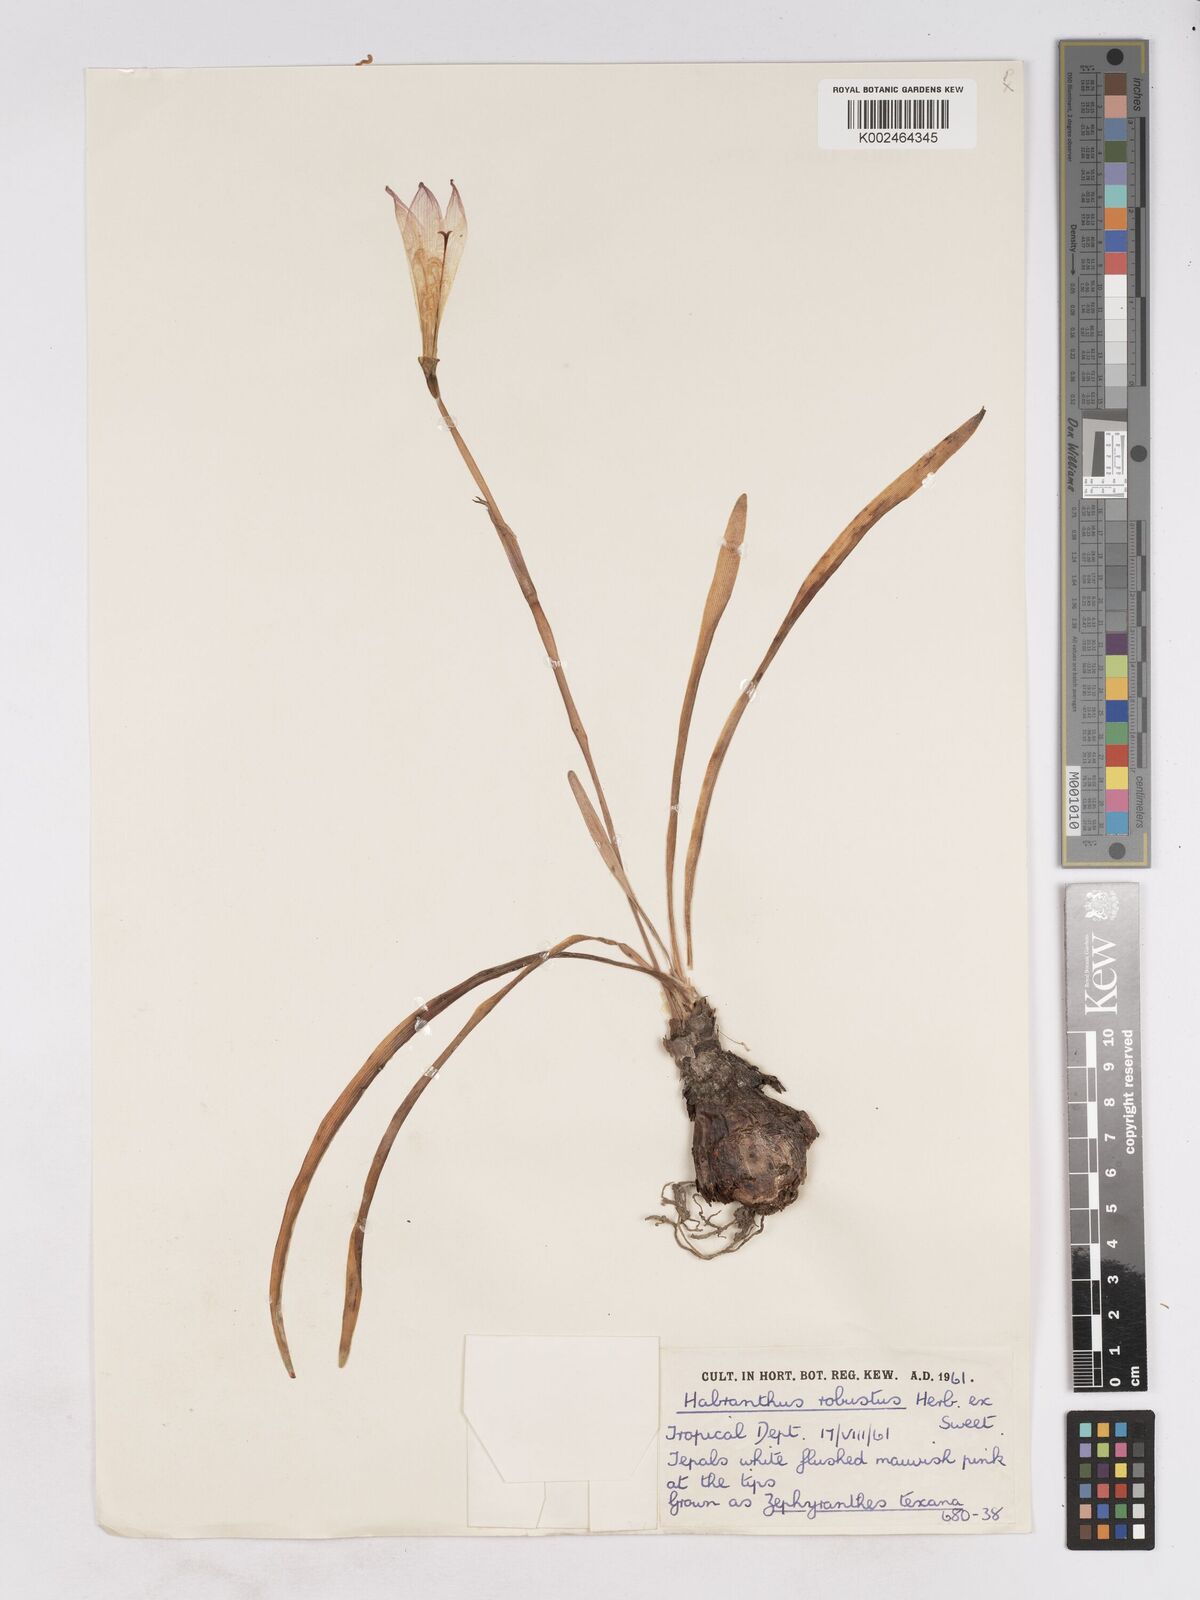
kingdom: Plantae
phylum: Tracheophyta
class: Liliopsida
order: Asparagales
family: Amaryllidaceae
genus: Zephyranthes
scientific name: Zephyranthes robusta
